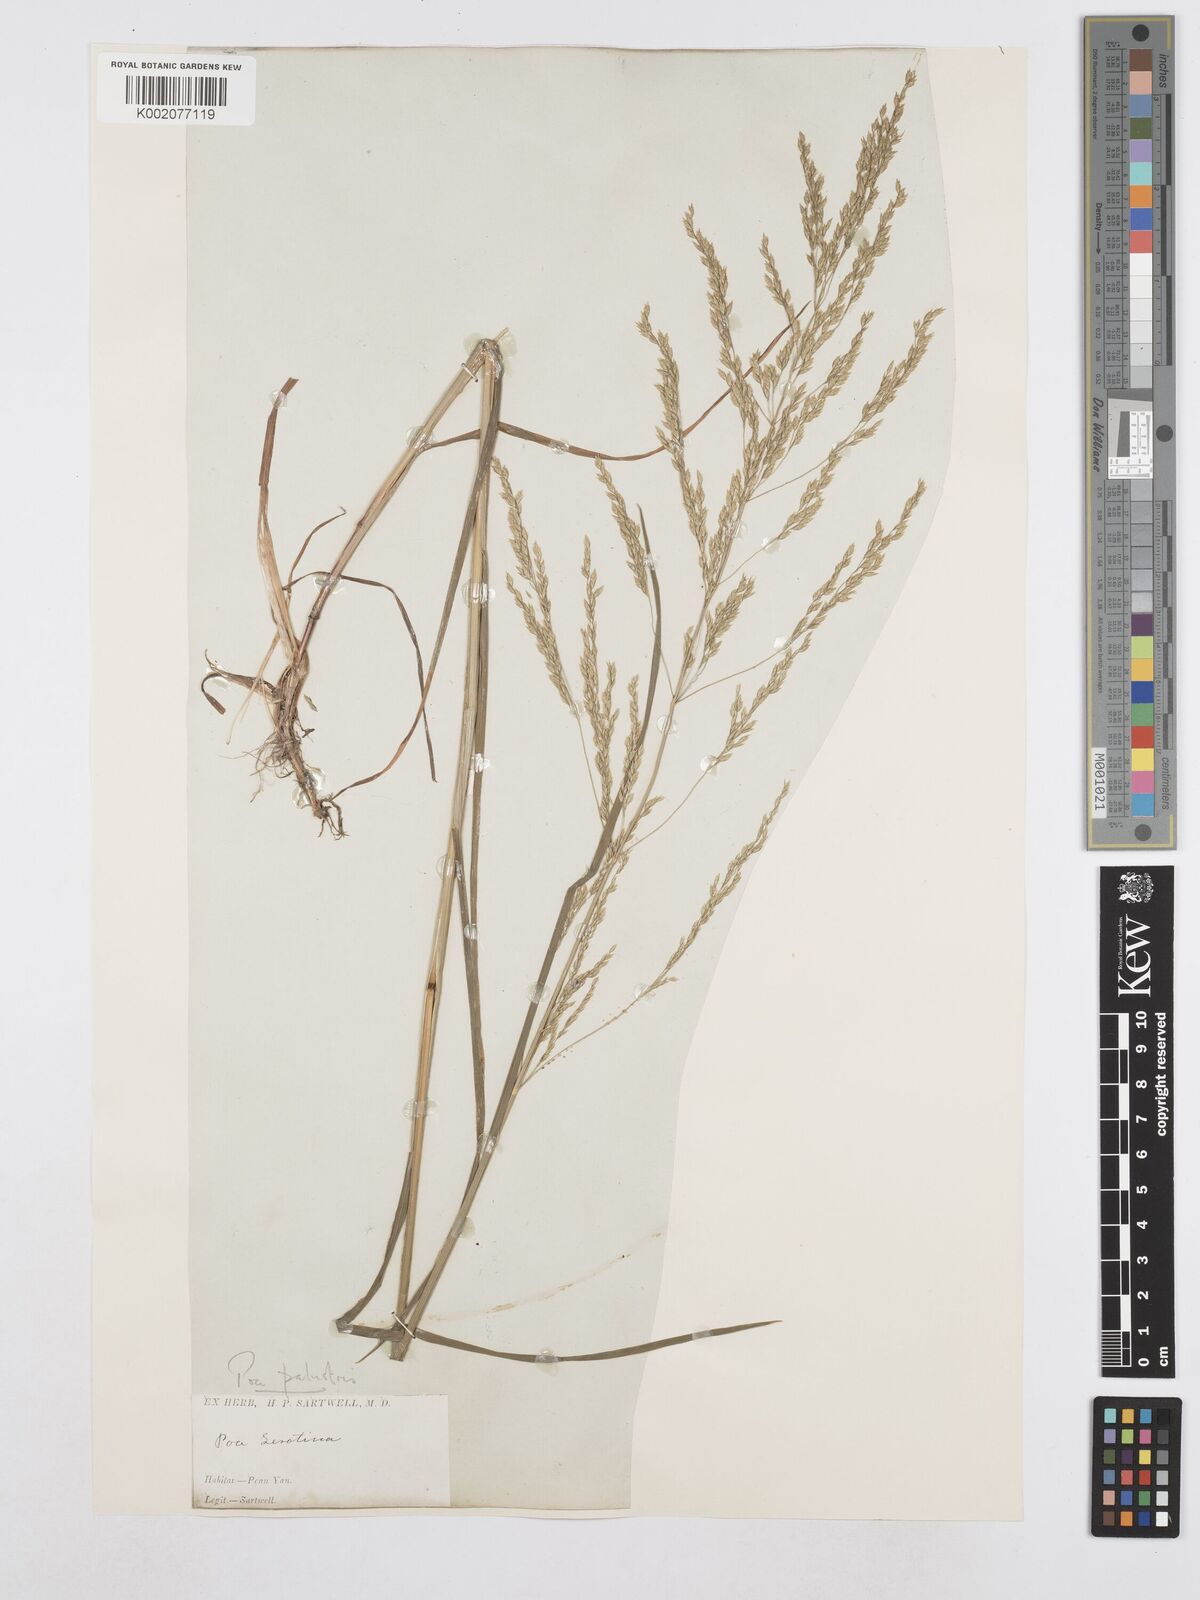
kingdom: Plantae
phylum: Tracheophyta
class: Liliopsida
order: Poales
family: Poaceae
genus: Poa
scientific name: Poa palustris
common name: Swamp meadow-grass
